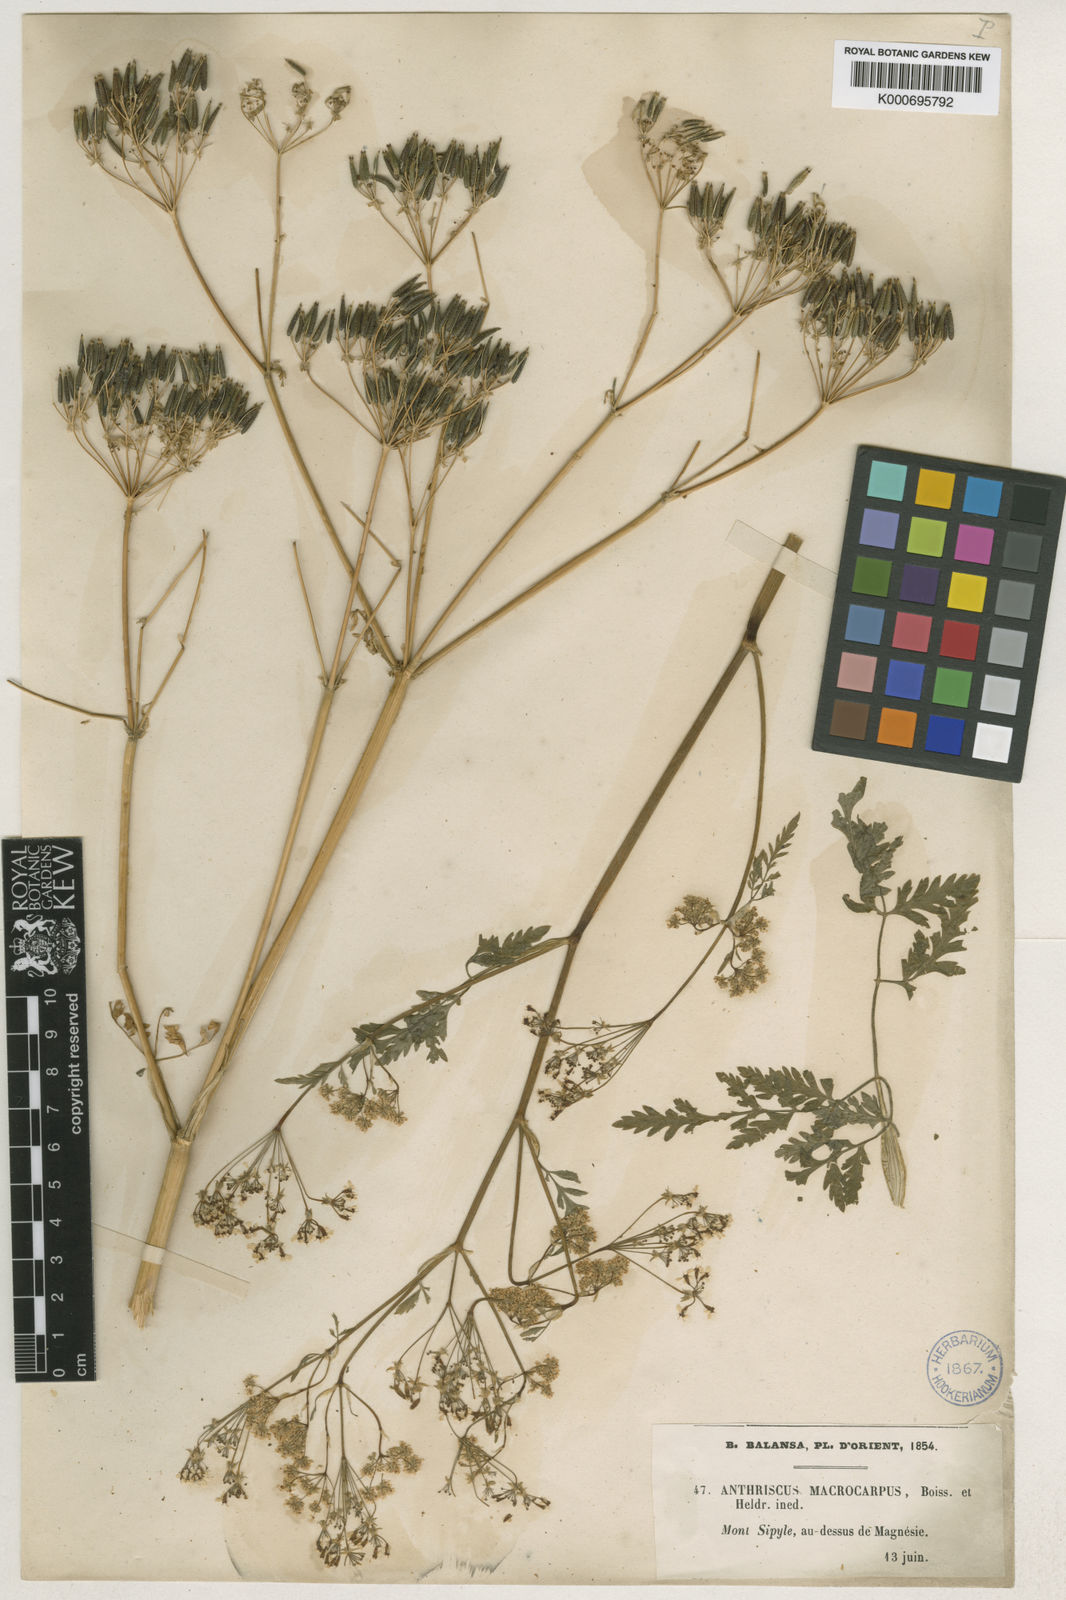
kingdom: Plantae
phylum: Tracheophyta
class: Magnoliopsida
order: Apiales
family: Apiaceae
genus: Anthriscus
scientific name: Anthriscus sylvestris
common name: Cow parsley
